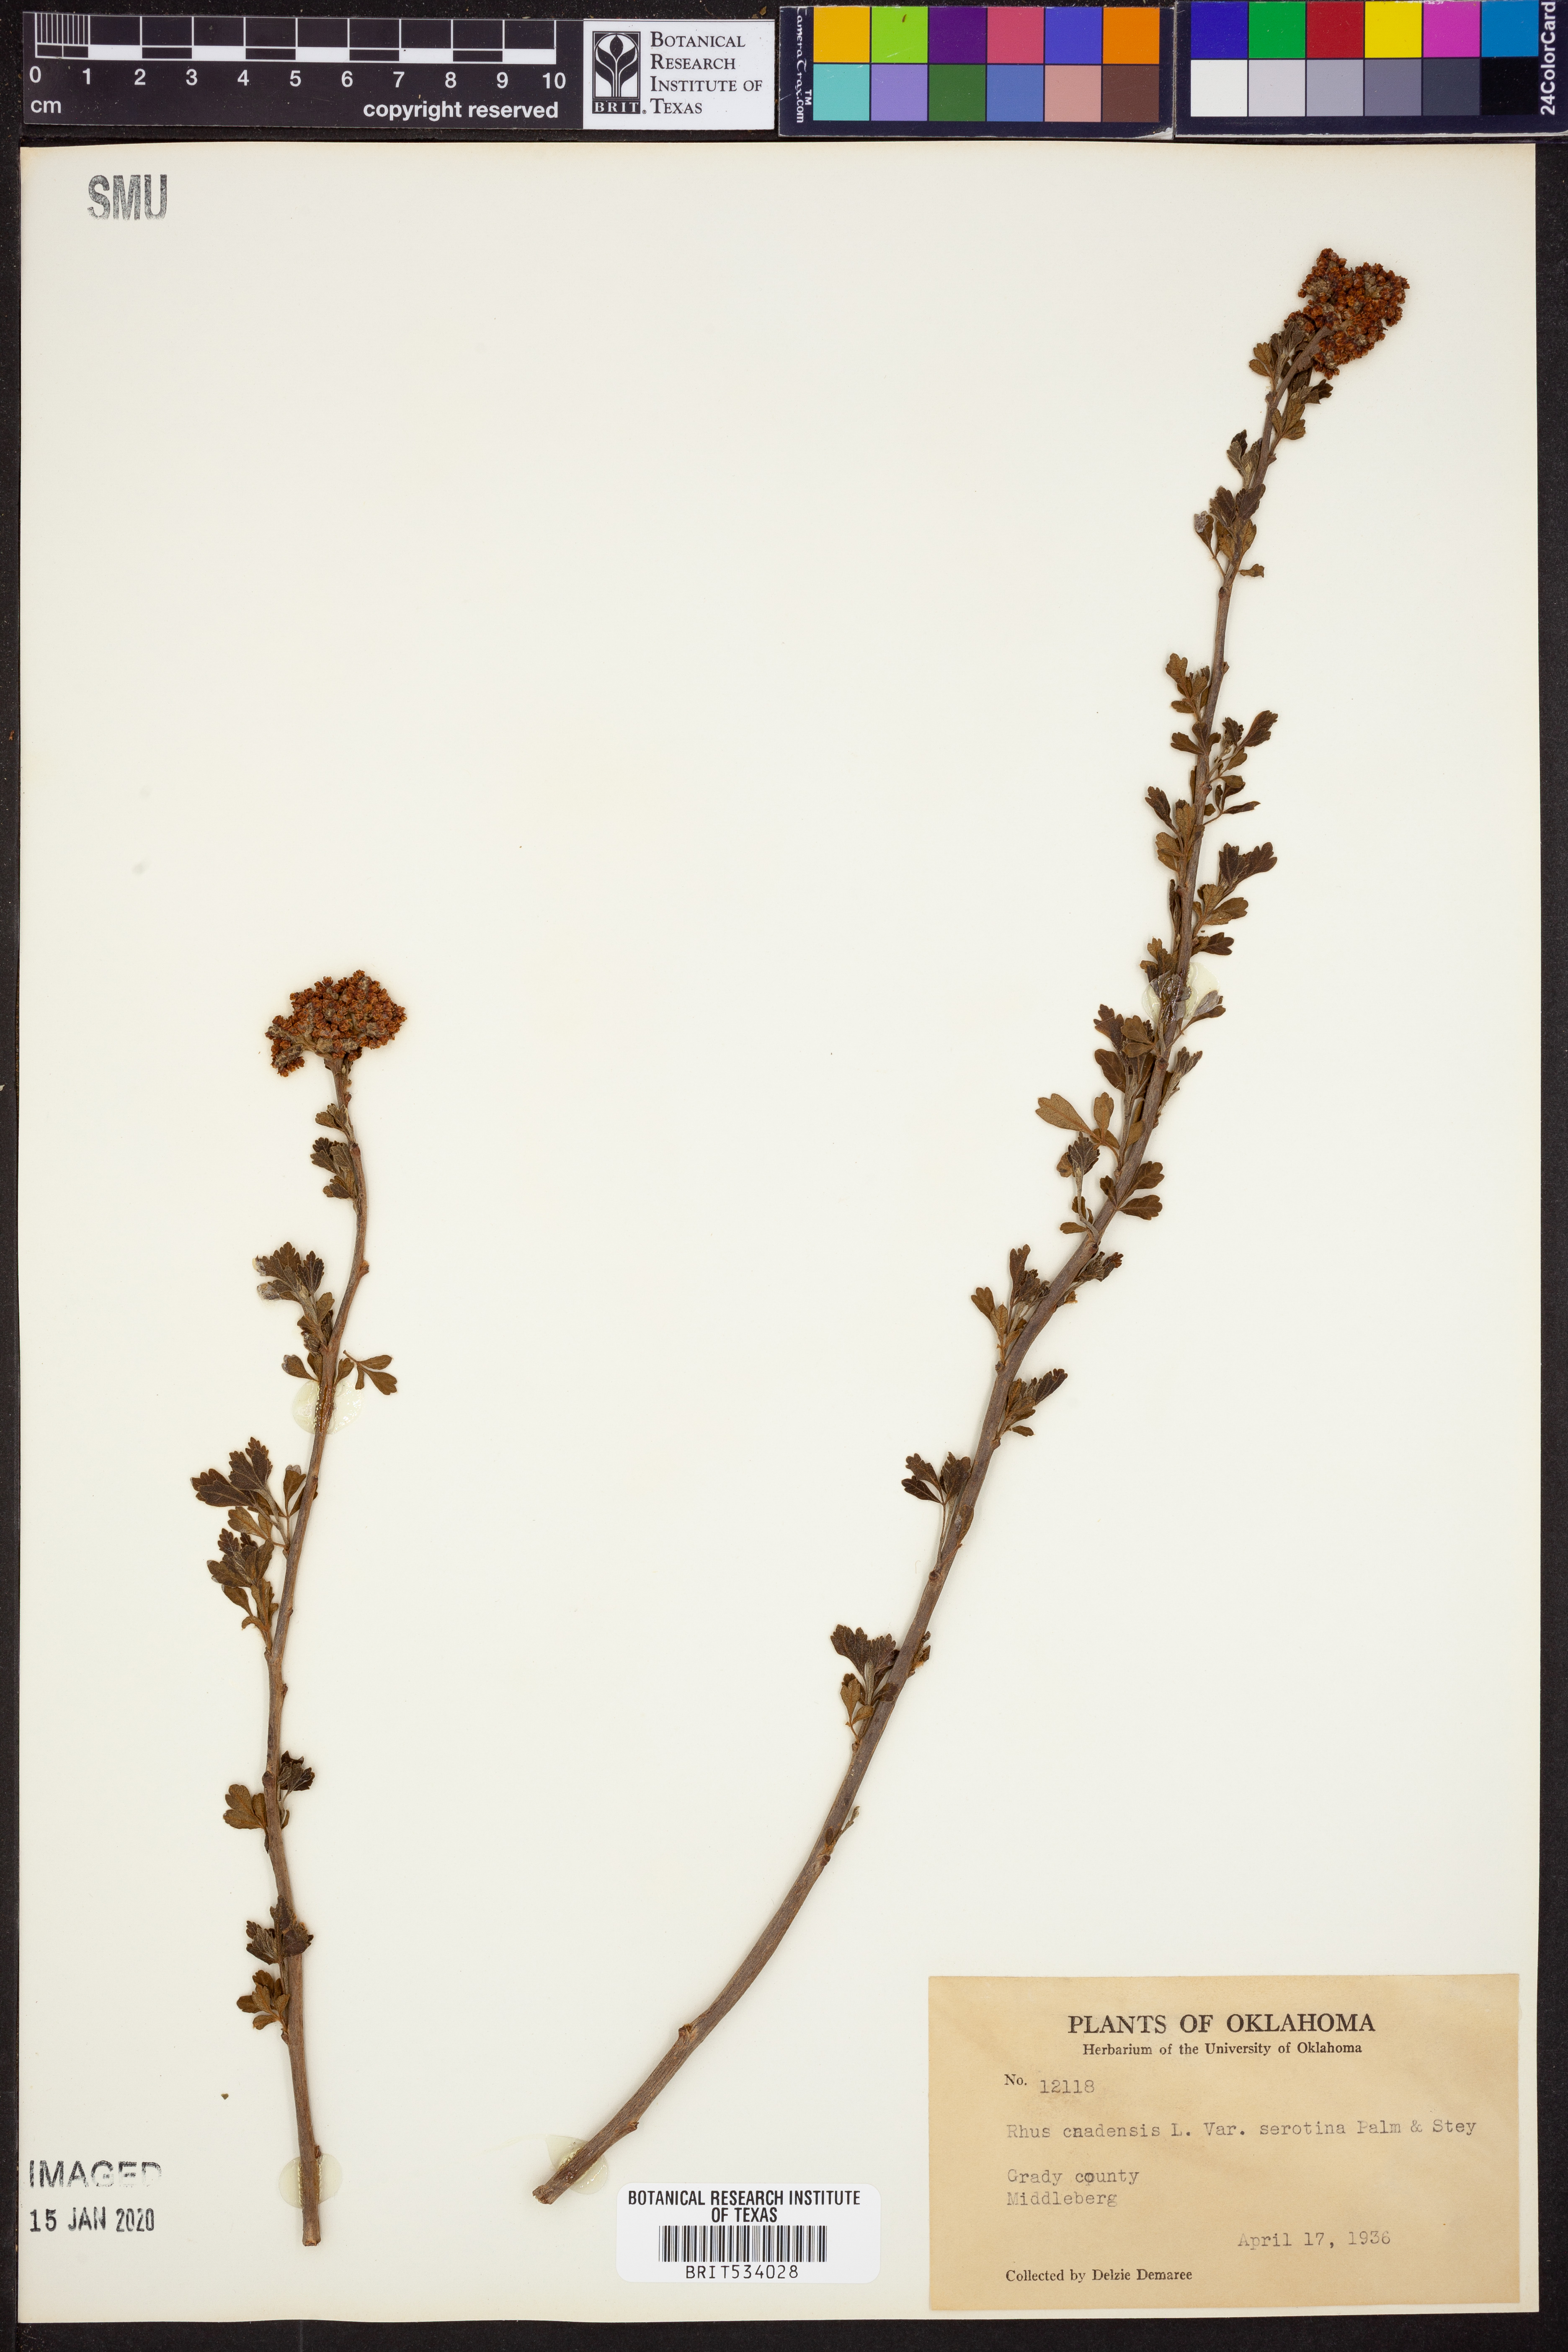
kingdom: Plantae
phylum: Tracheophyta
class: Magnoliopsida
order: Sapindales
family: Anacardiaceae
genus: Rhus
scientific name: Rhus aromatica
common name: Aromatic sumac
